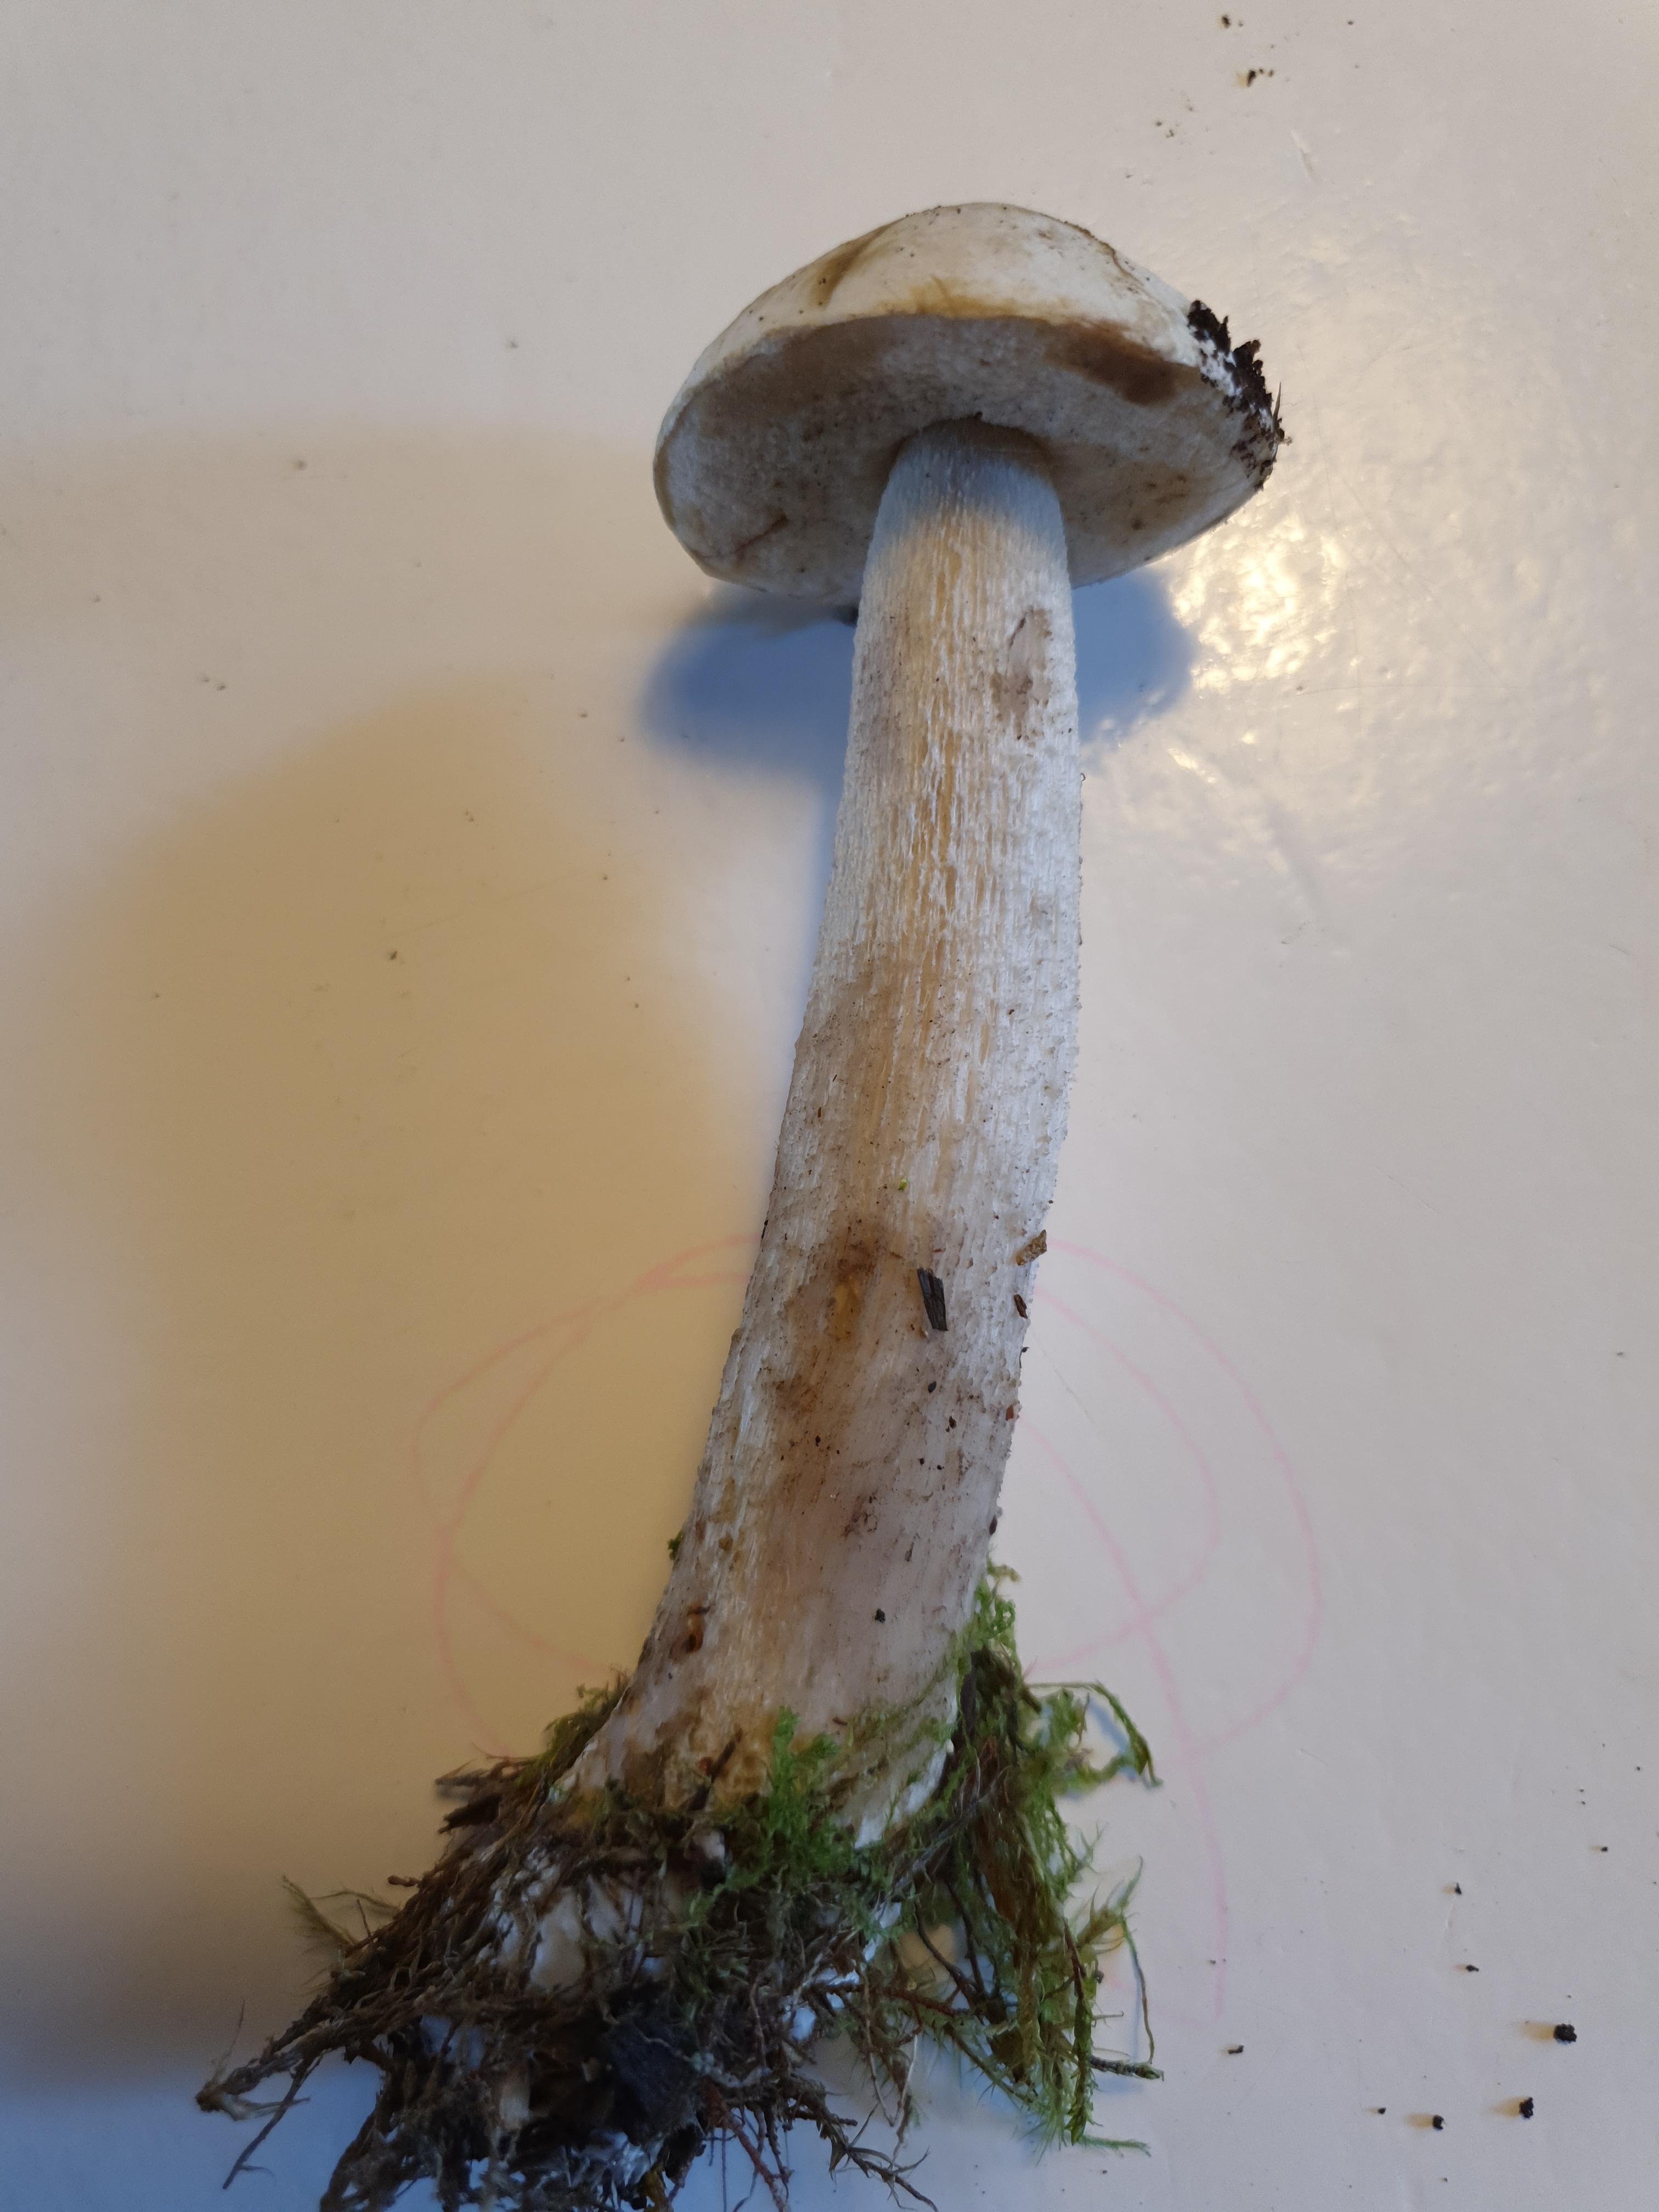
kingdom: Fungi
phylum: Basidiomycota
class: Agaricomycetes
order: Boletales
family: Boletaceae
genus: Leccinum
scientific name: Leccinum
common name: skælrørhat
